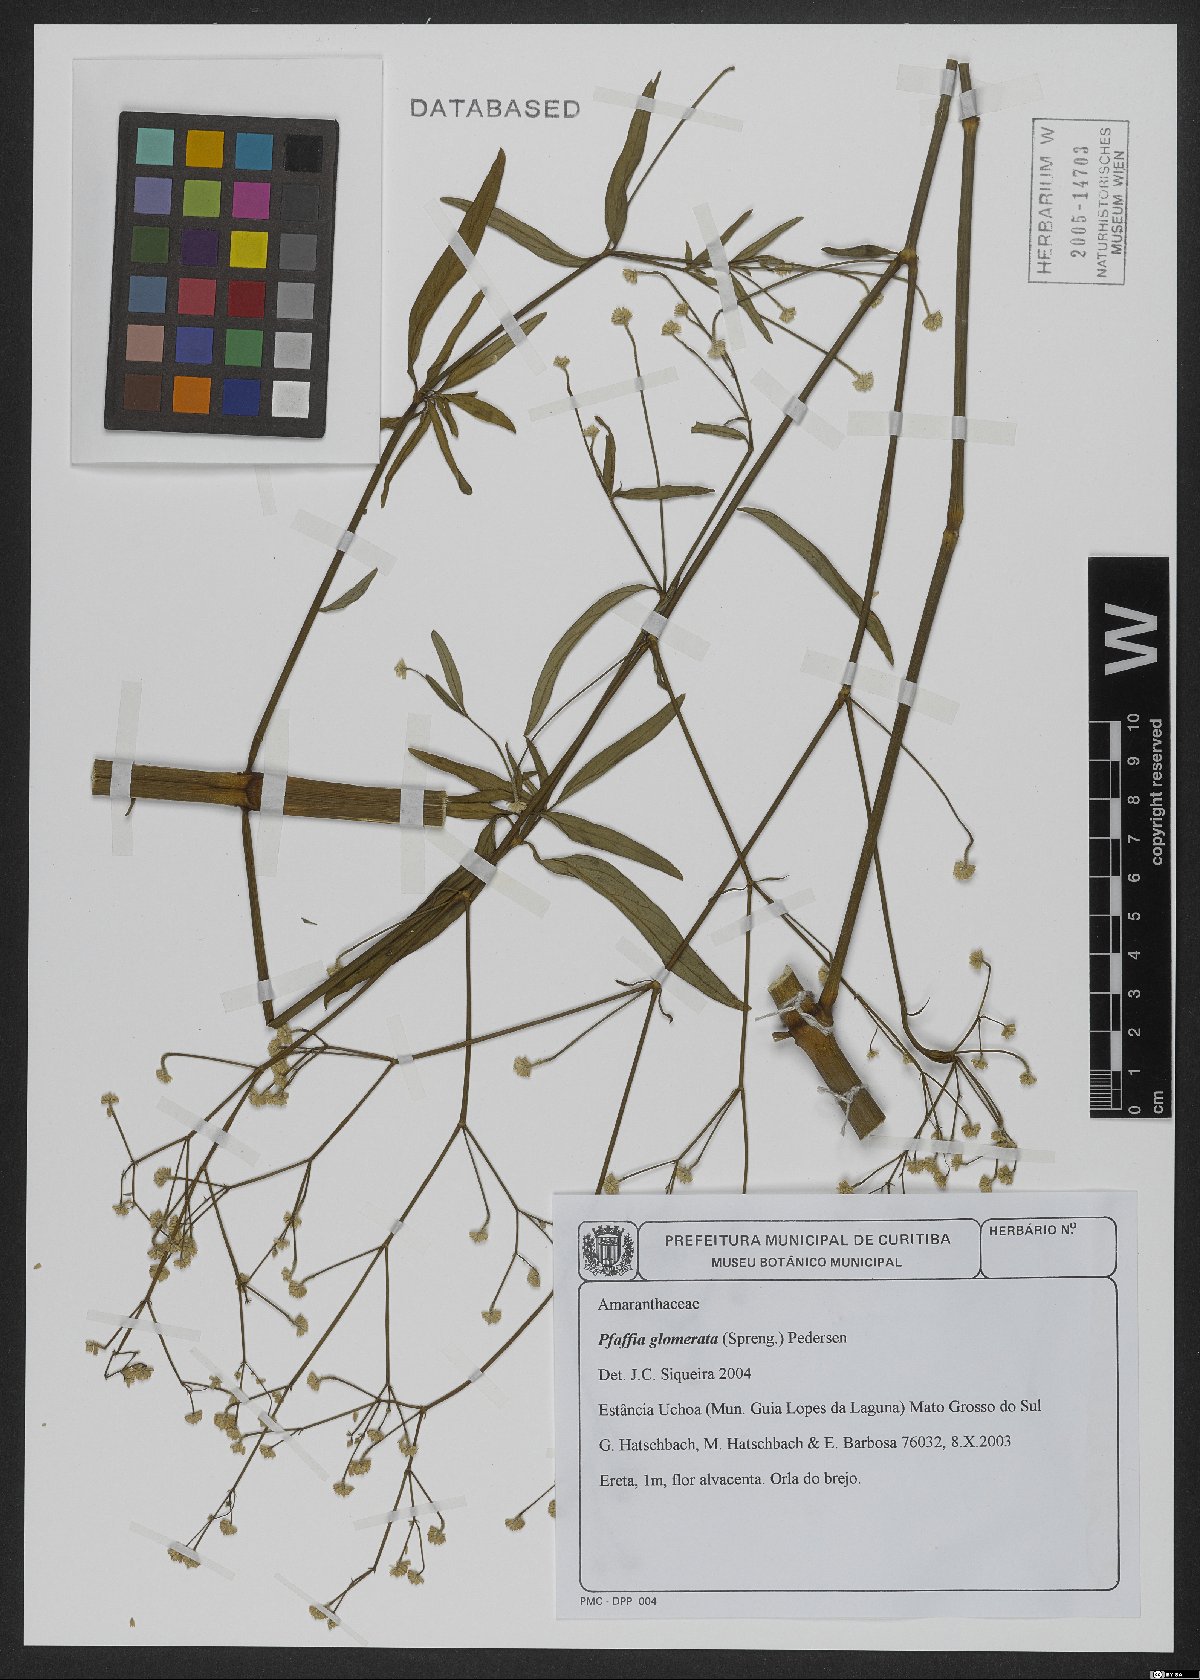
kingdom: Plantae
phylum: Tracheophyta
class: Magnoliopsida
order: Caryophyllales
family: Amaranthaceae
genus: Pfaffia
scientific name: Pfaffia glomerata
